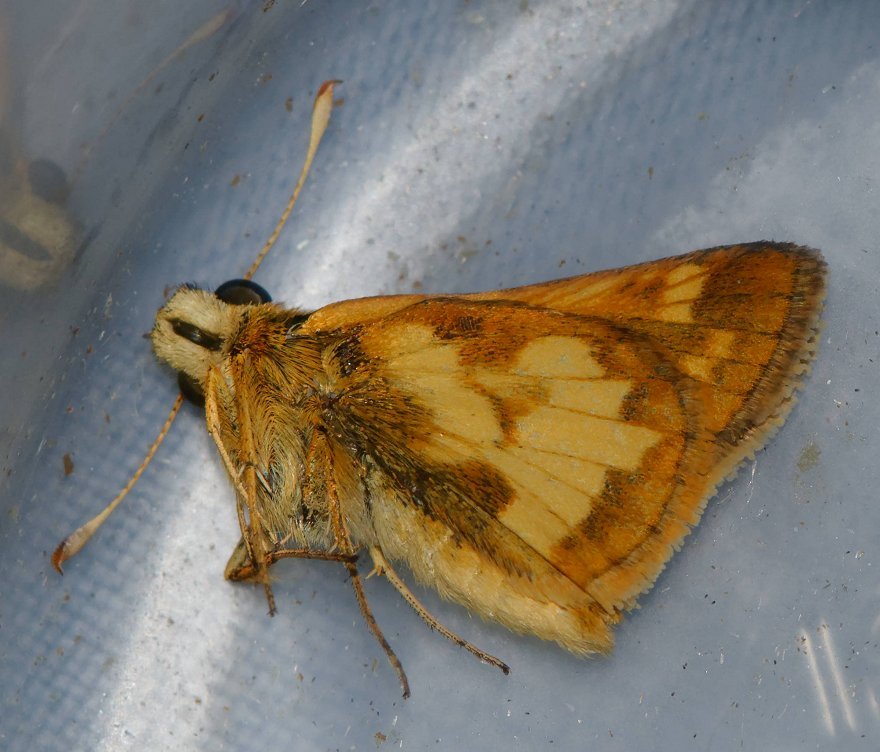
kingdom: Animalia
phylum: Arthropoda
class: Insecta
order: Lepidoptera
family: Hesperiidae
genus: Polites
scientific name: Polites coras
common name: Peck's Skipper
